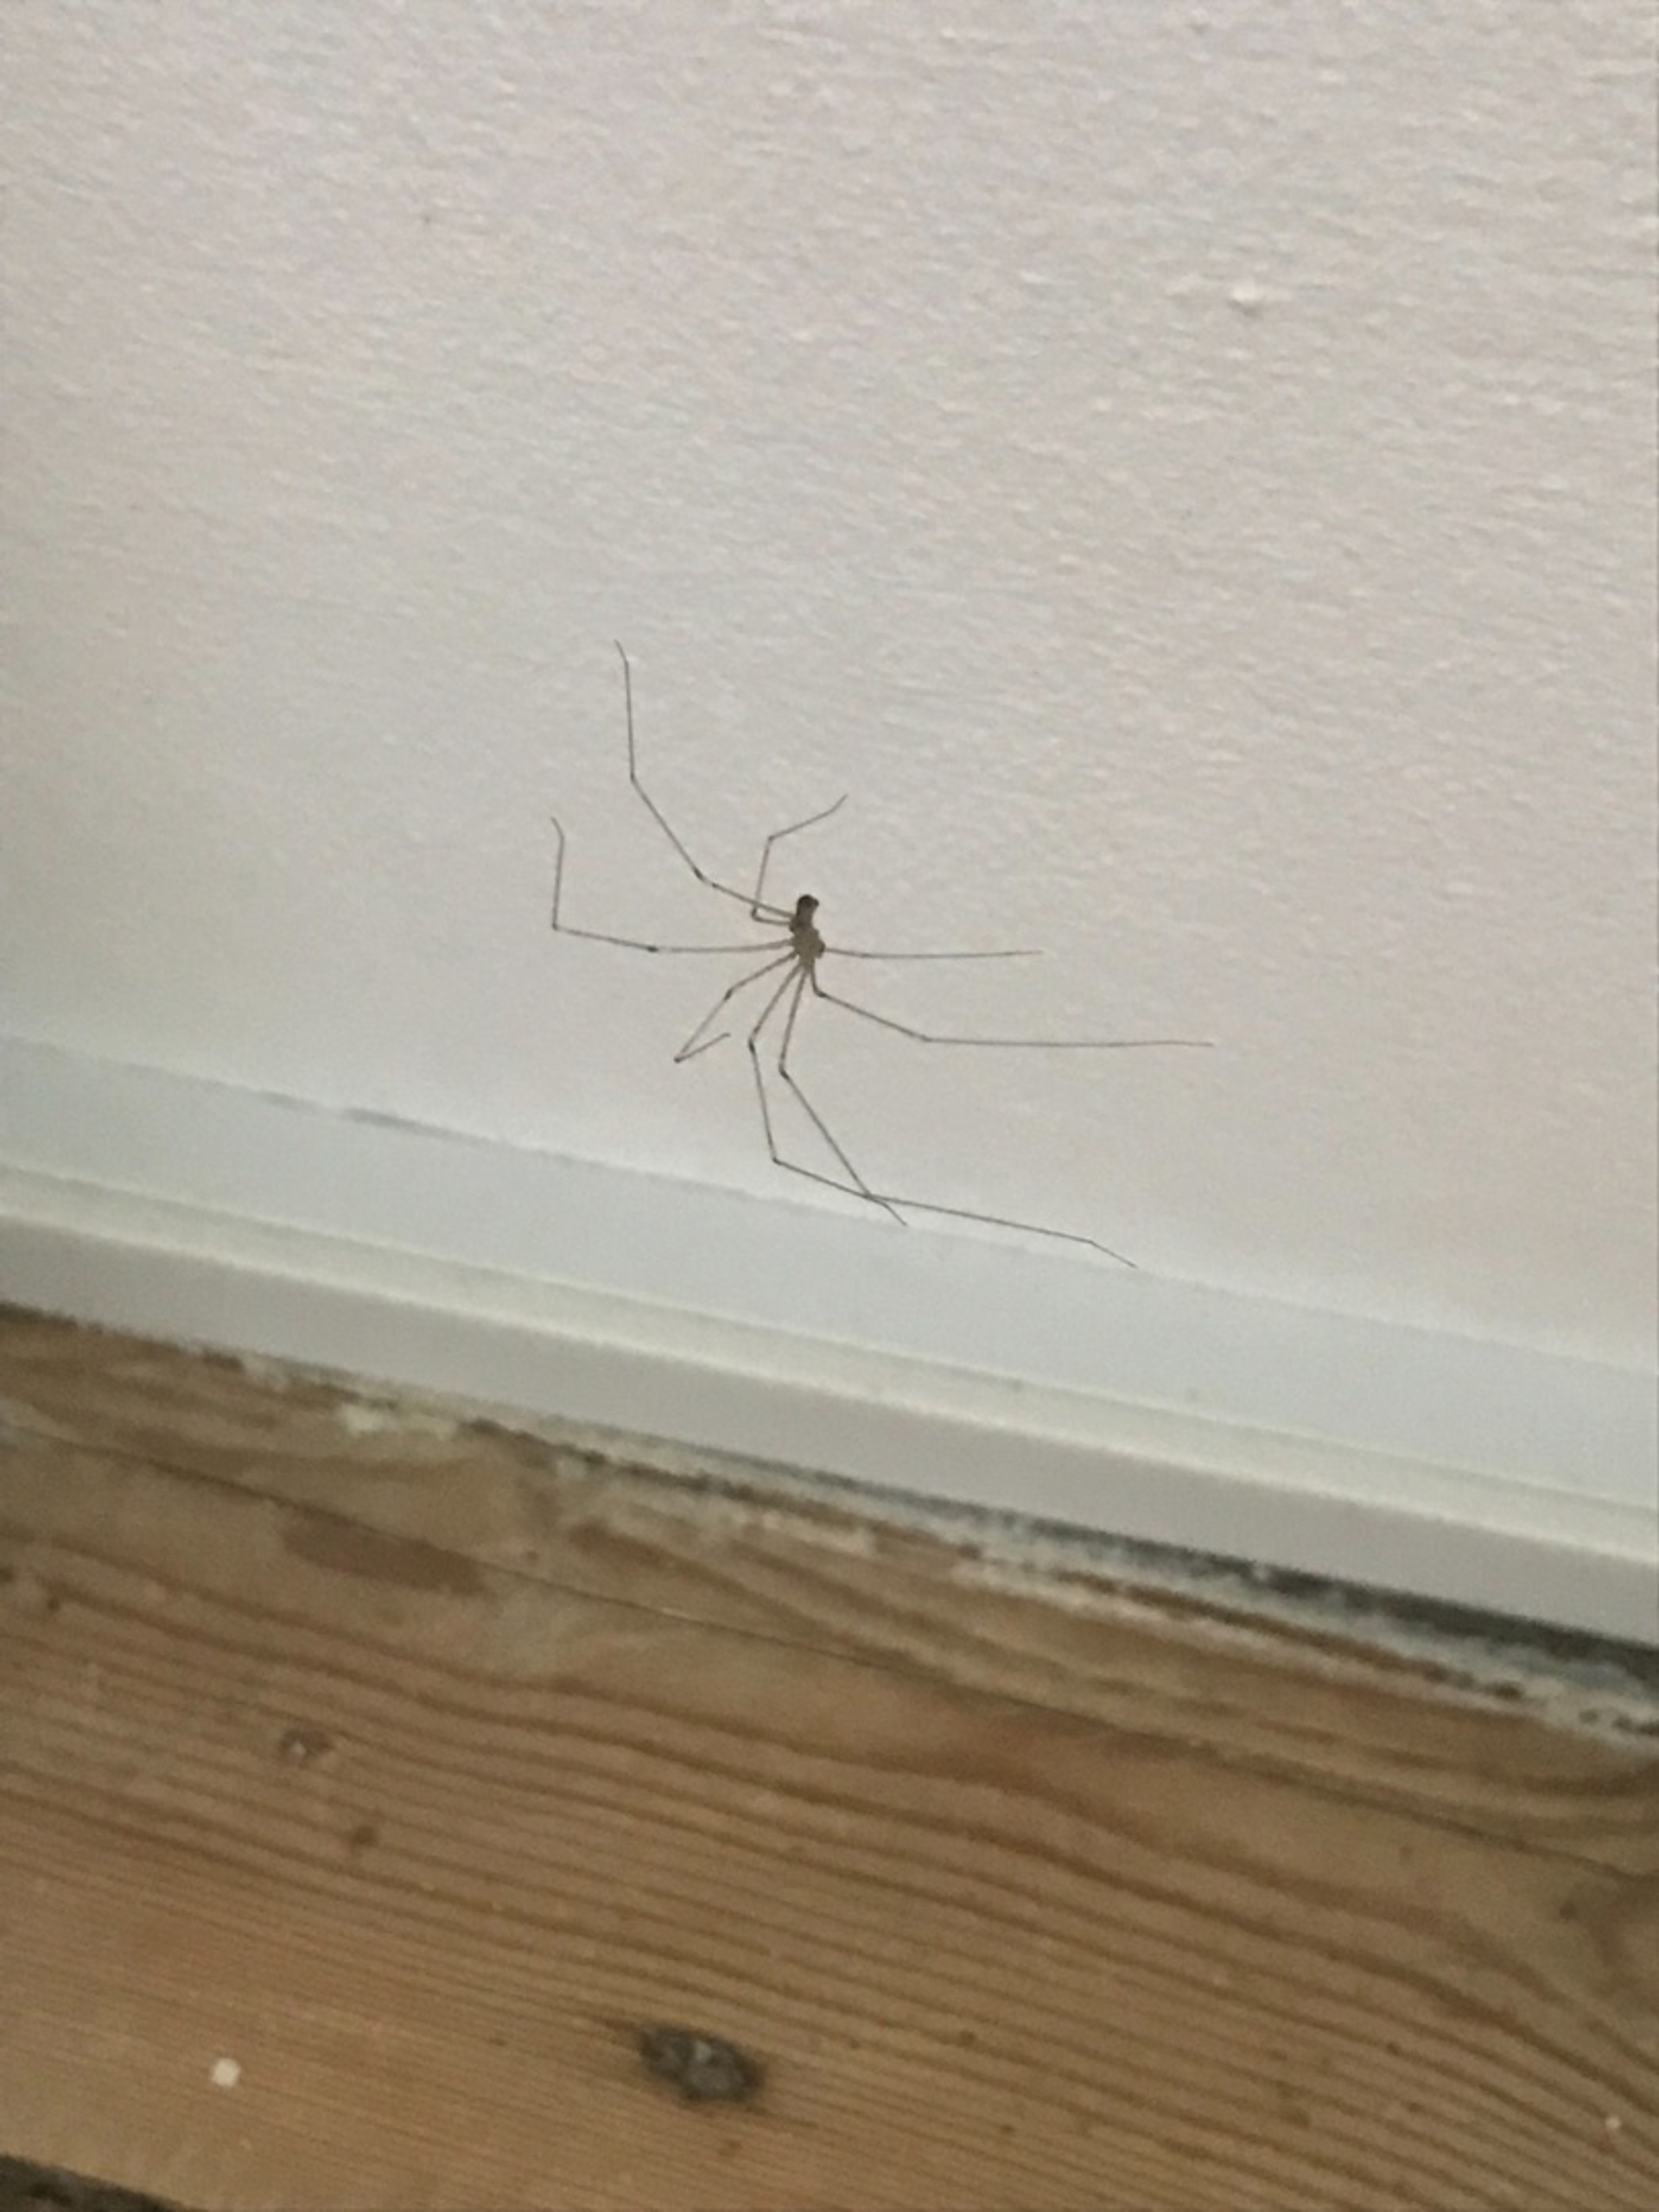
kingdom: Animalia
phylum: Arthropoda
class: Arachnida
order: Araneae
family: Pholcidae
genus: Pholcus
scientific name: Pholcus phalangioides
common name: Mejeredderkop
